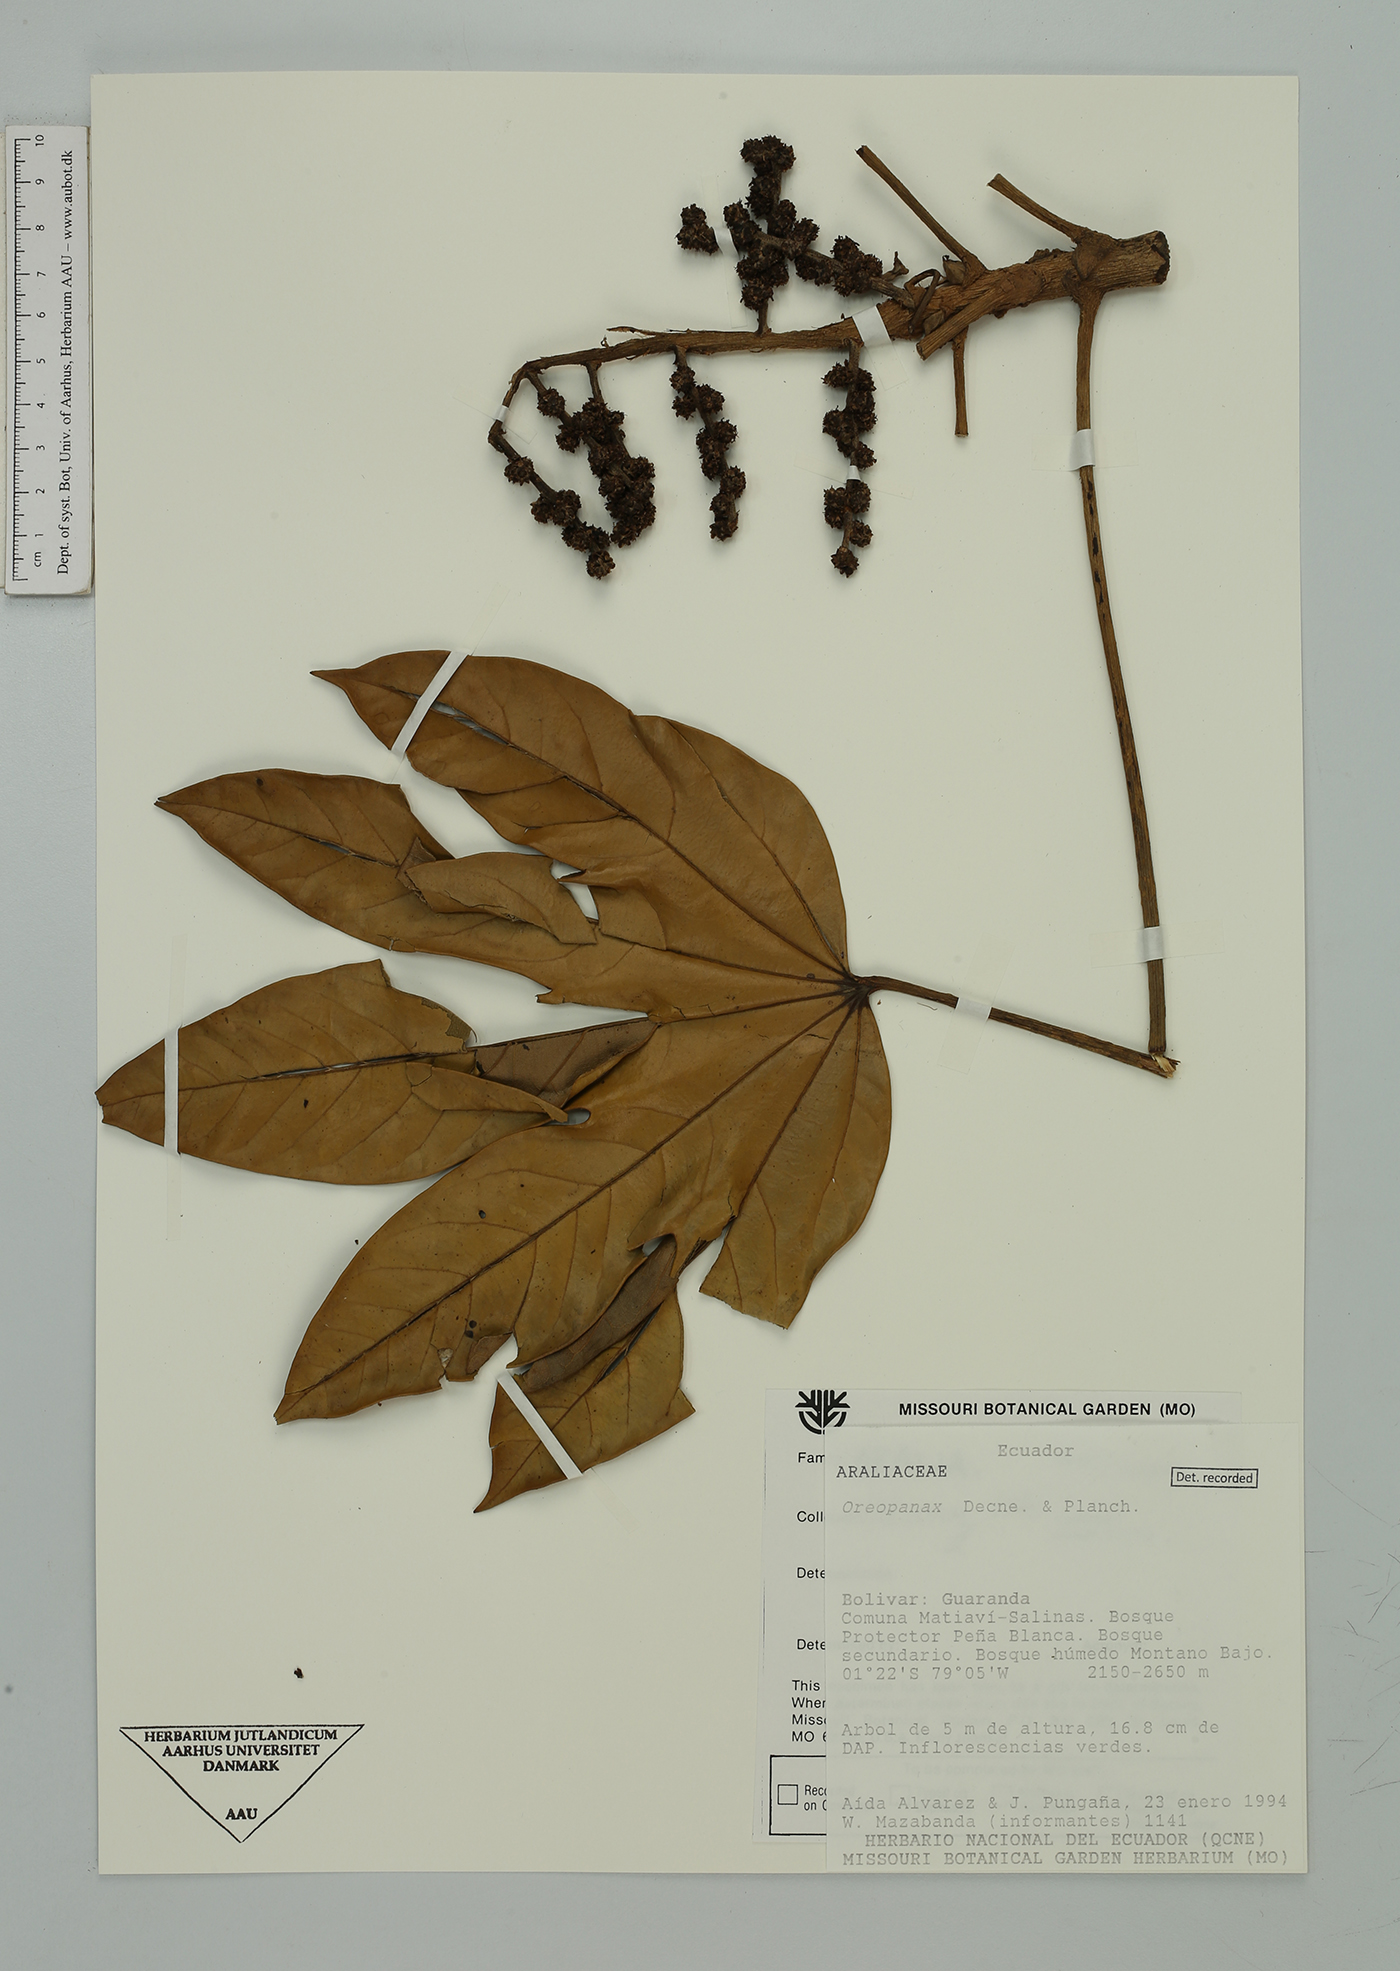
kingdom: Plantae
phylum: Tracheophyta
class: Magnoliopsida
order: Apiales
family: Araliaceae
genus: Oreopanax
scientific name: Oreopanax
